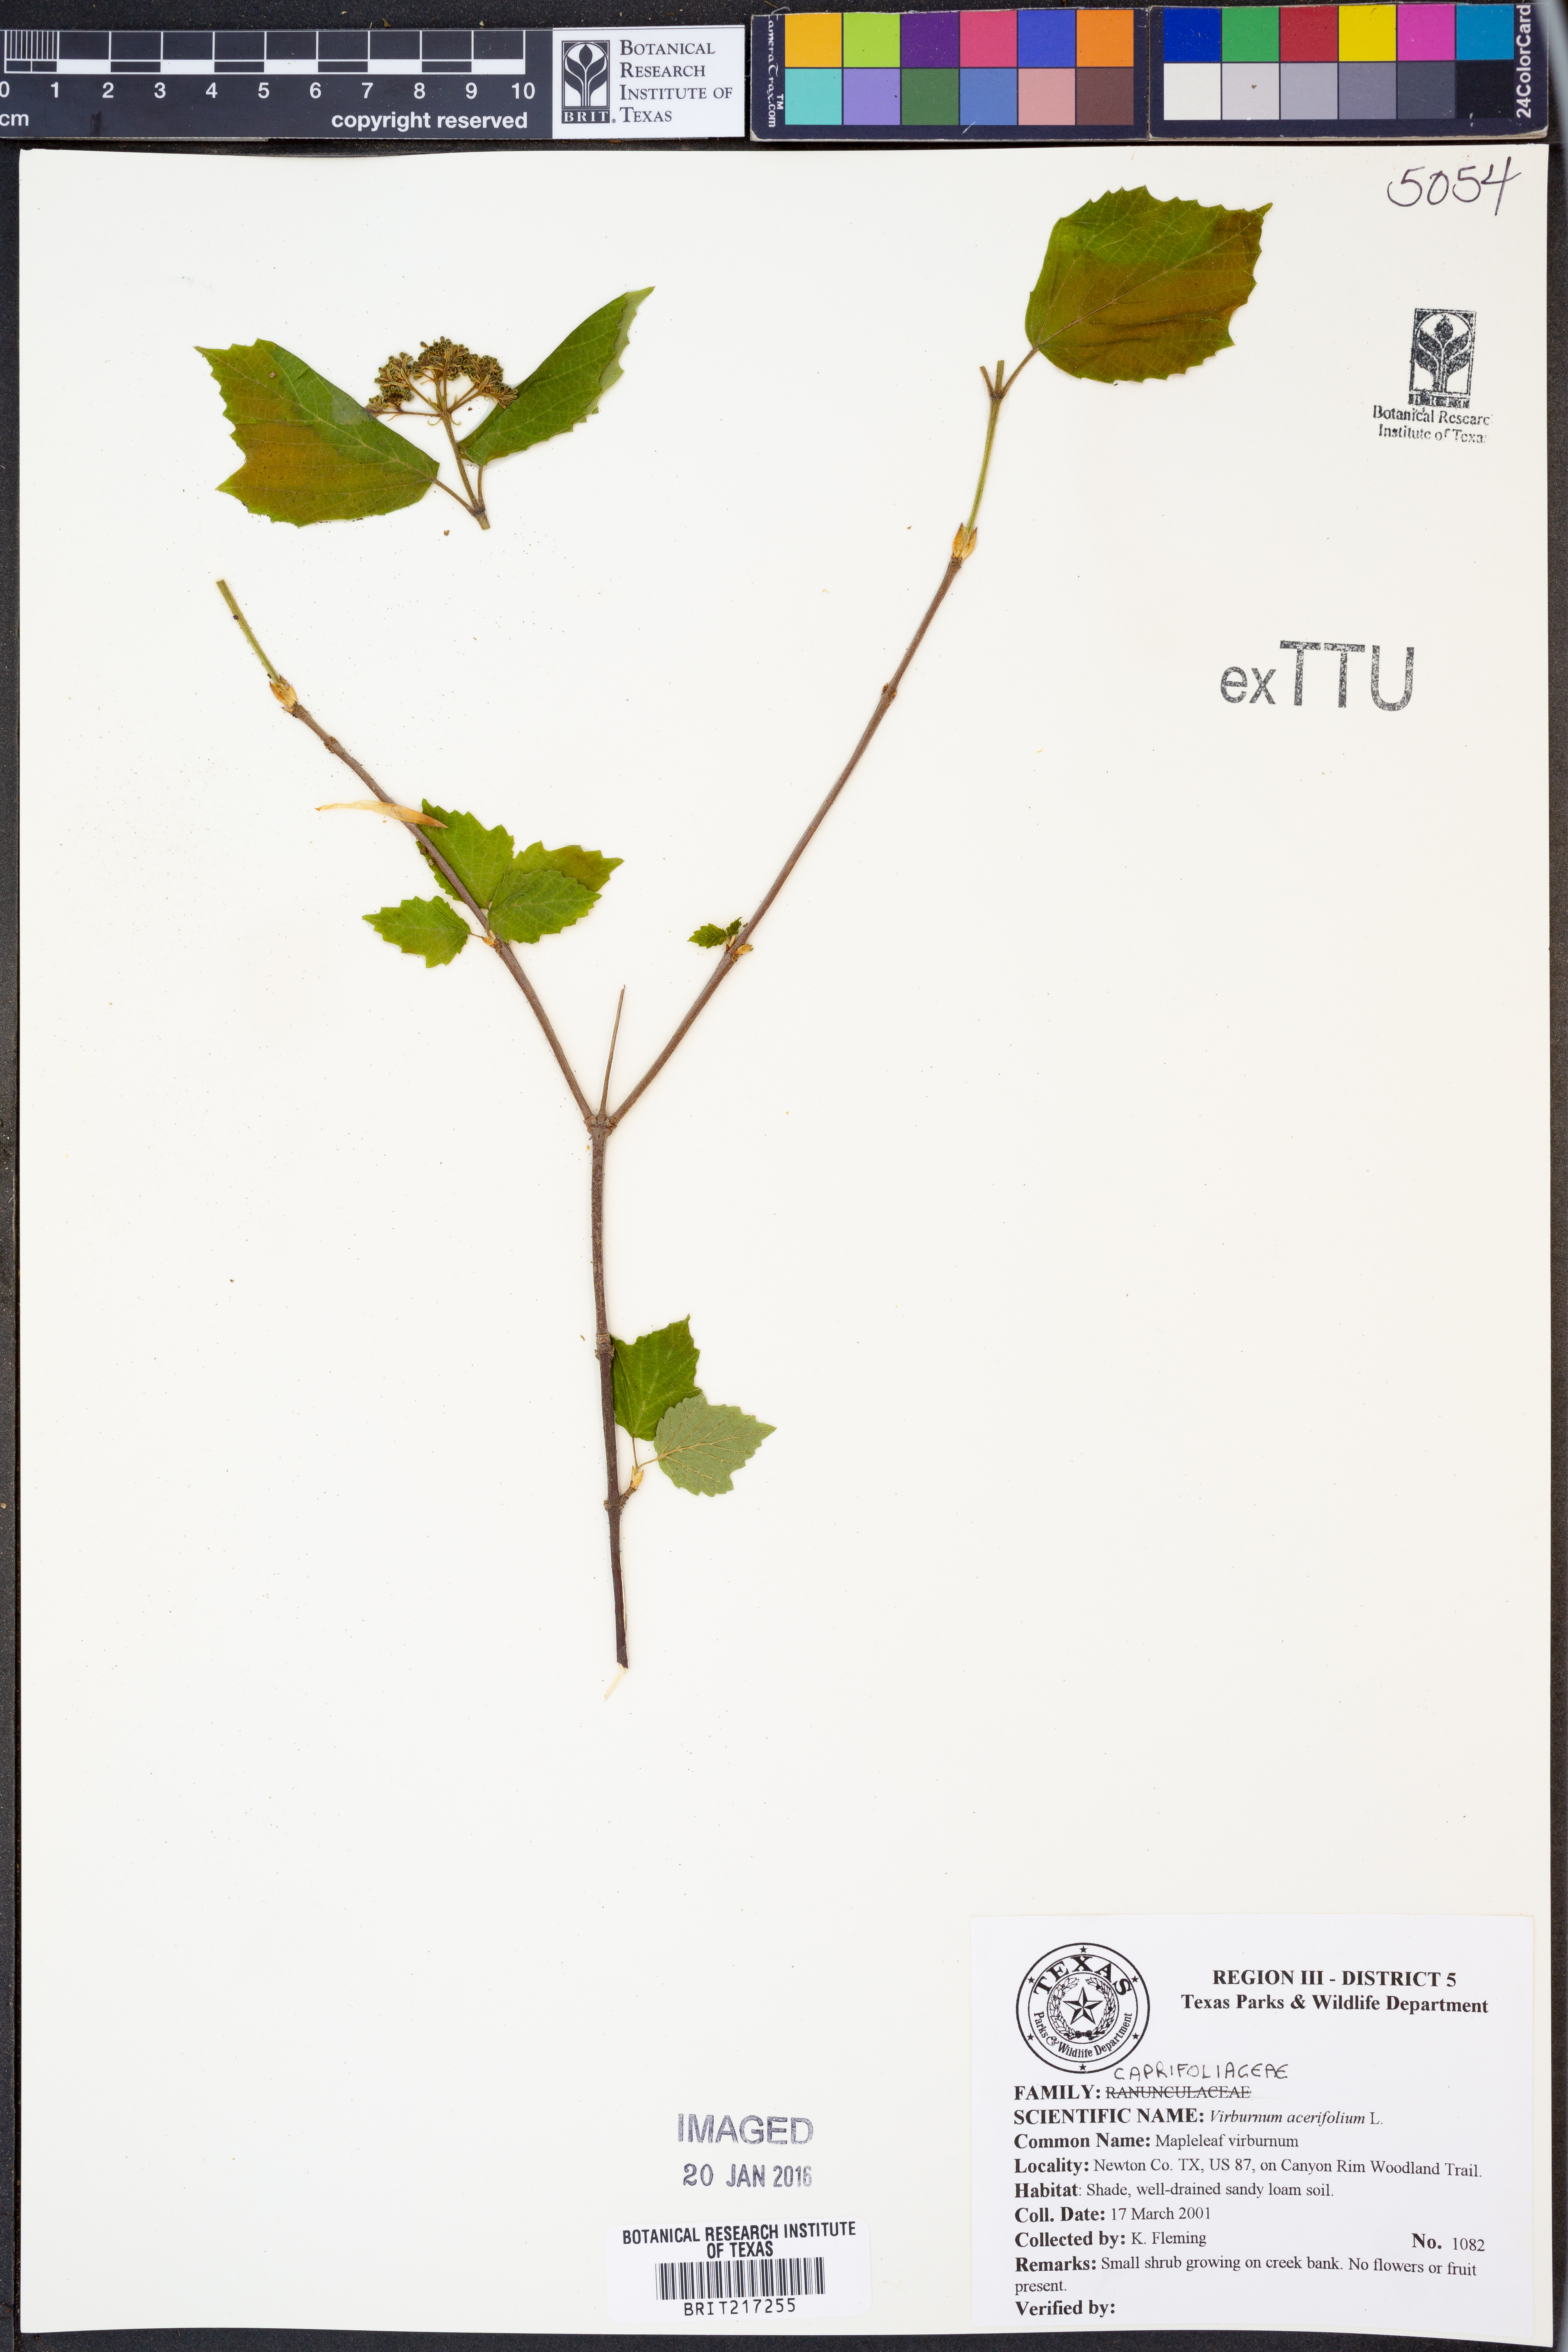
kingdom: Plantae
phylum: Tracheophyta
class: Magnoliopsida
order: Dipsacales
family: Viburnaceae
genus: Viburnum
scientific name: Viburnum acerifolium
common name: Dockmackie
